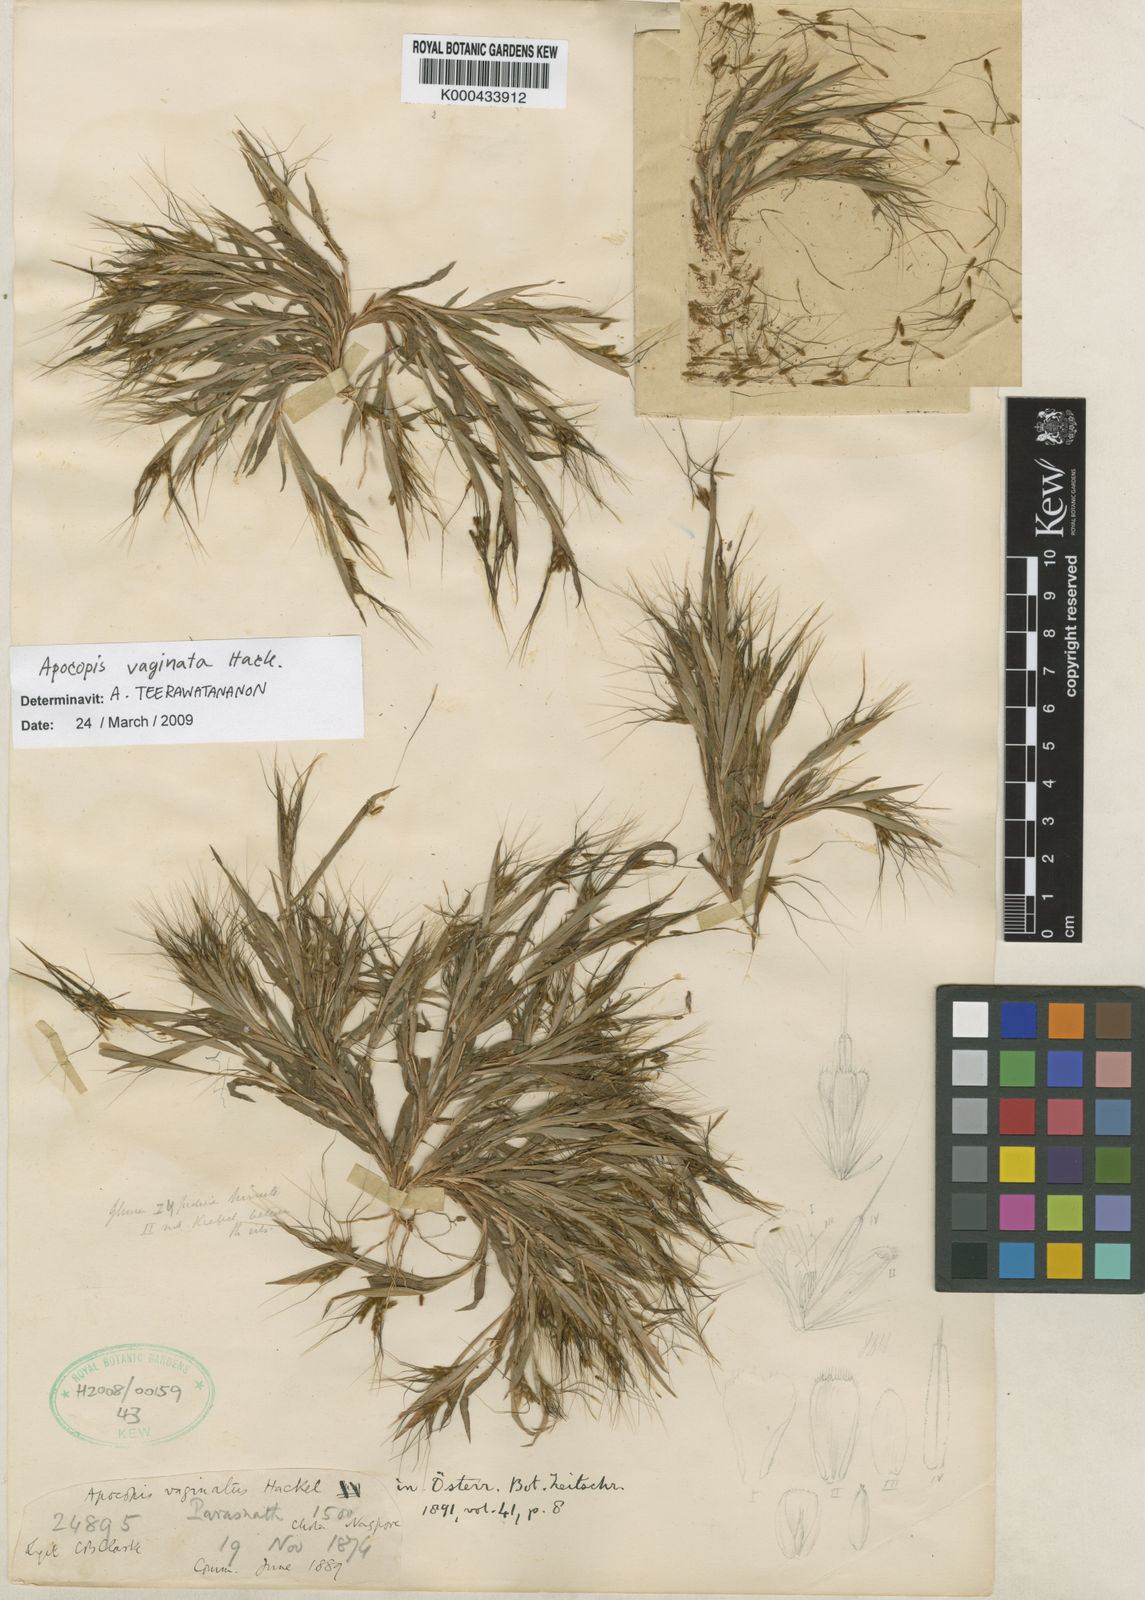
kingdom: Plantae
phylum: Tracheophyta
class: Liliopsida
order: Poales
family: Poaceae
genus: Apocopis
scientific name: Apocopis vaginatus
